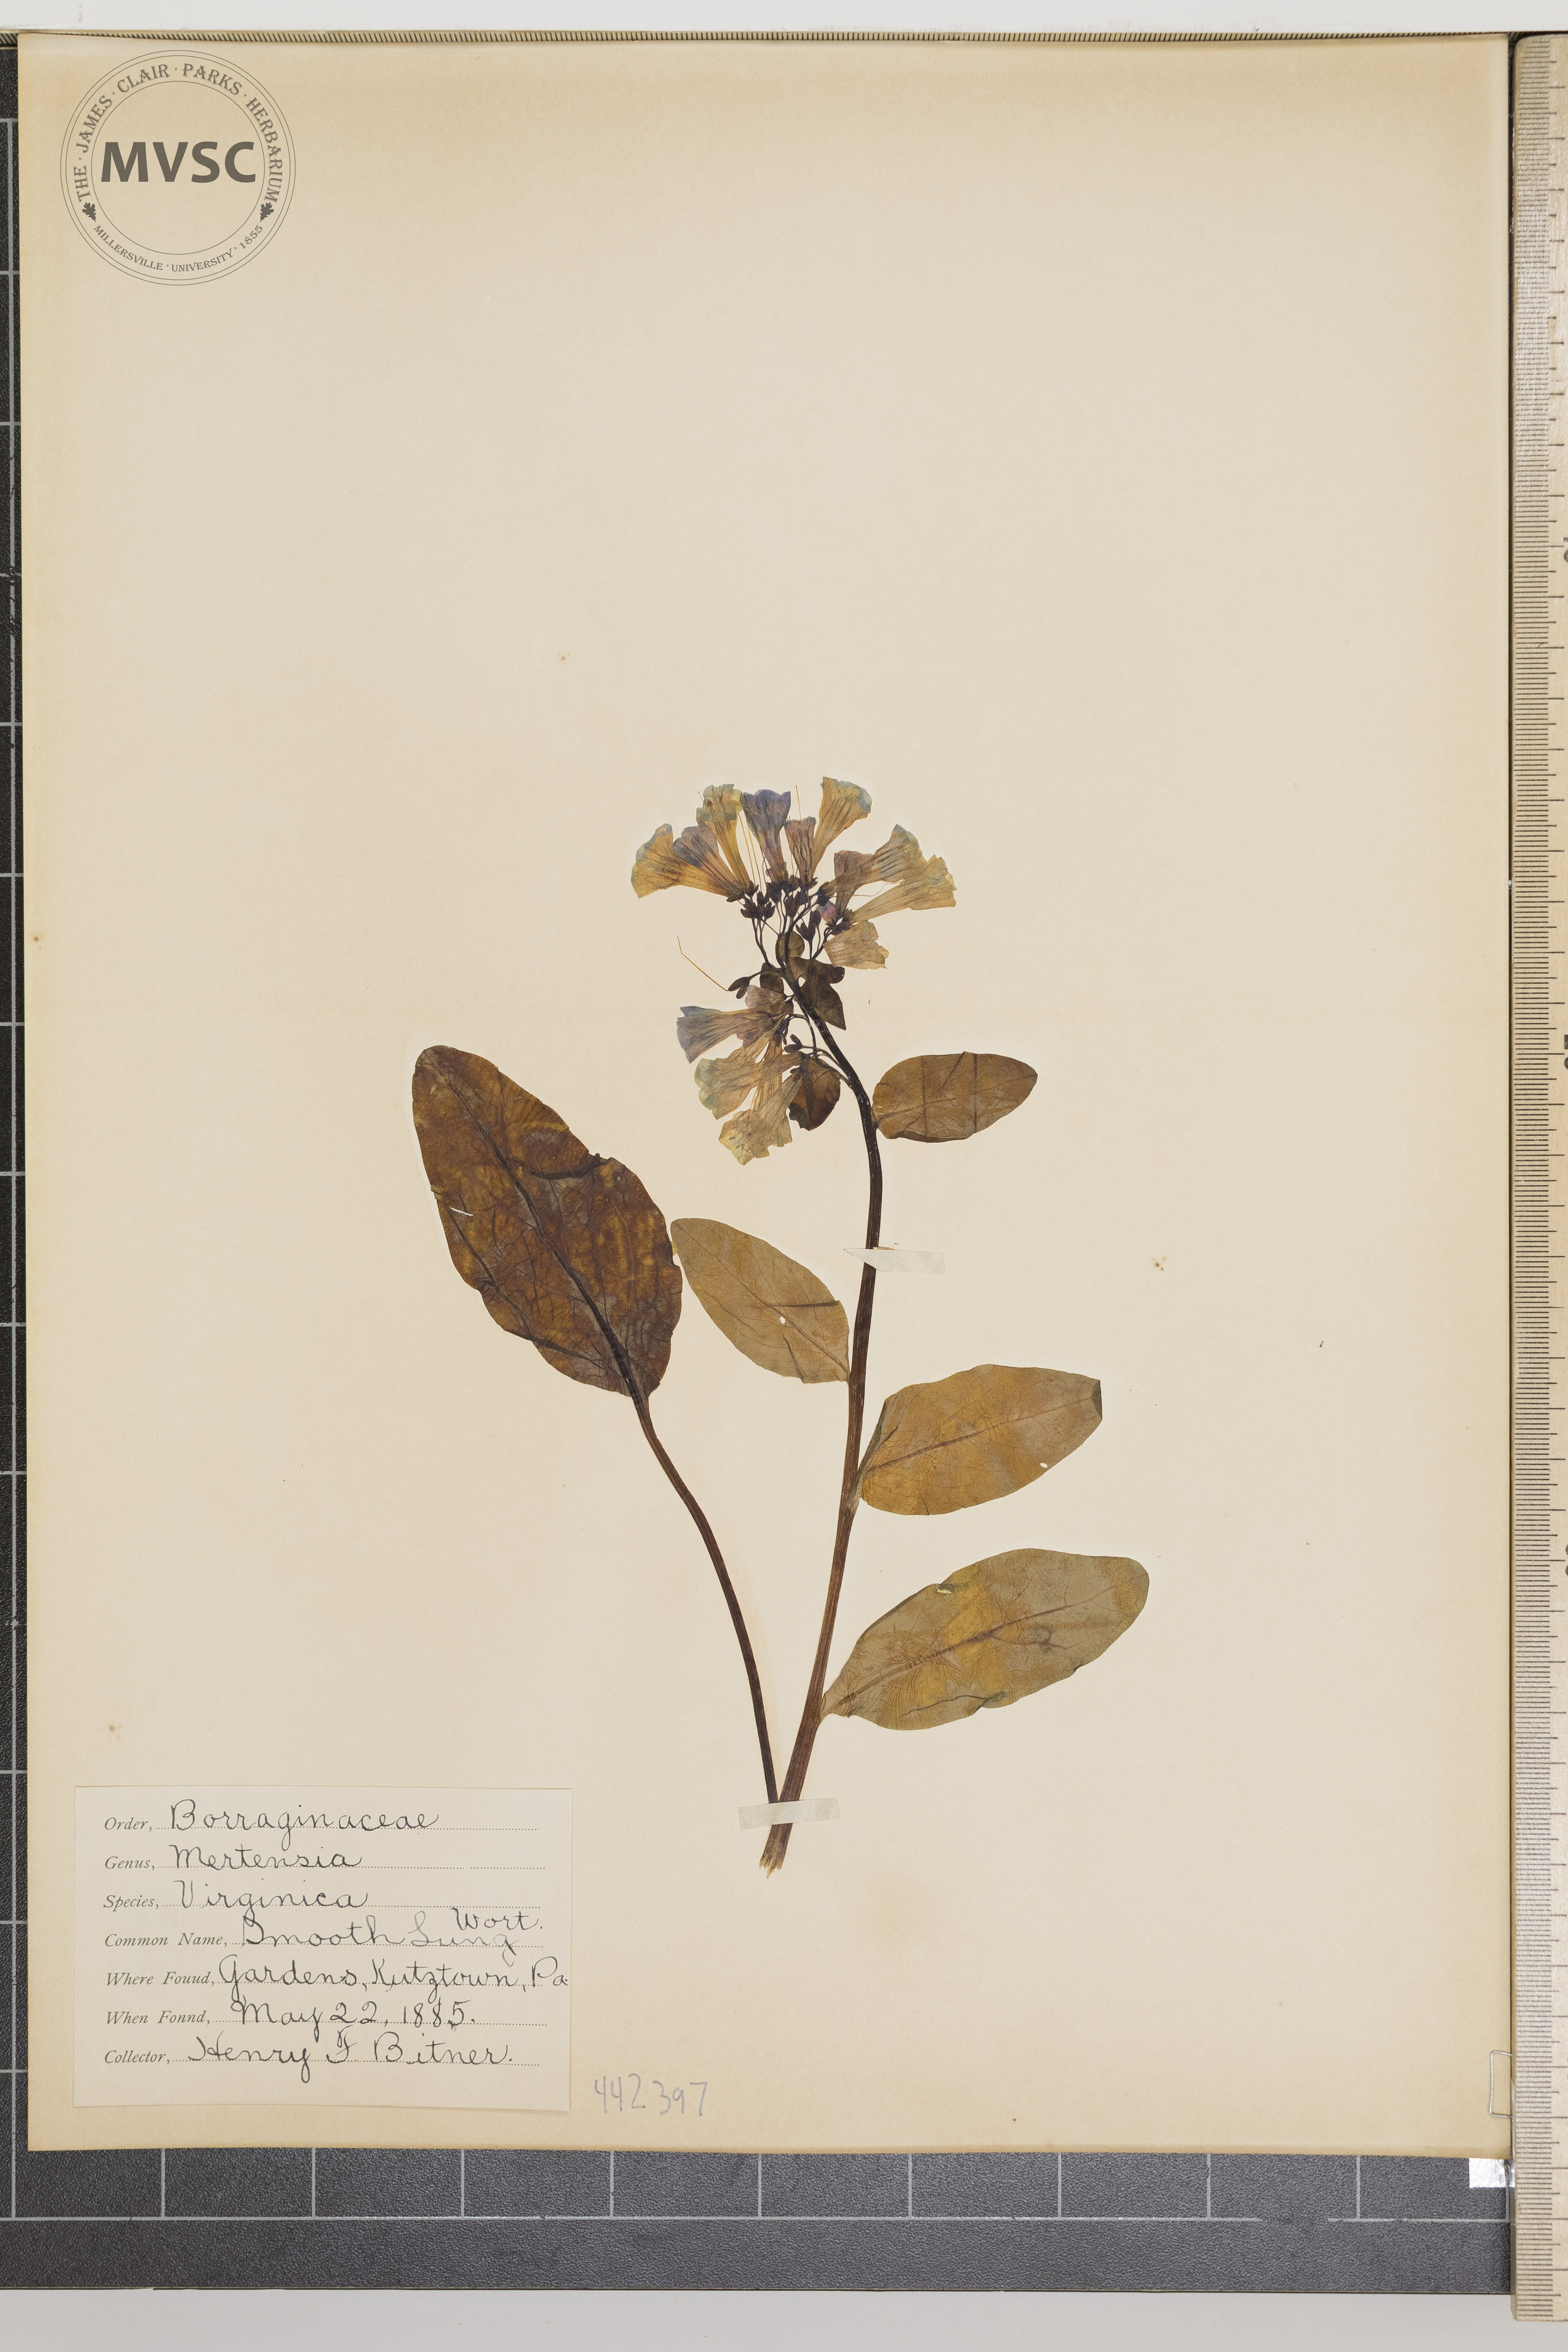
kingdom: Plantae
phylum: Tracheophyta
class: Magnoliopsida
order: Boraginales
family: Boraginaceae
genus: Mertensia
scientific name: Mertensia virginica
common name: Smooth lungwort
